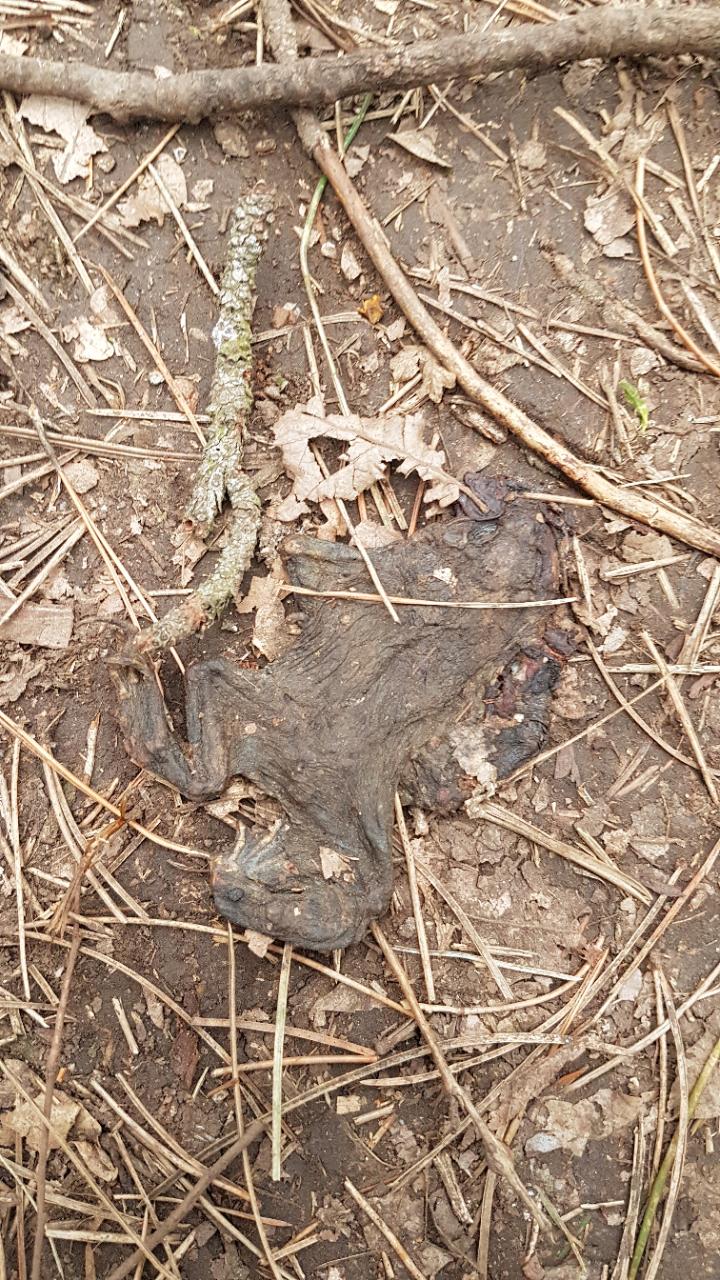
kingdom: Animalia
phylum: Chordata
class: Amphibia
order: Anura
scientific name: Anura
